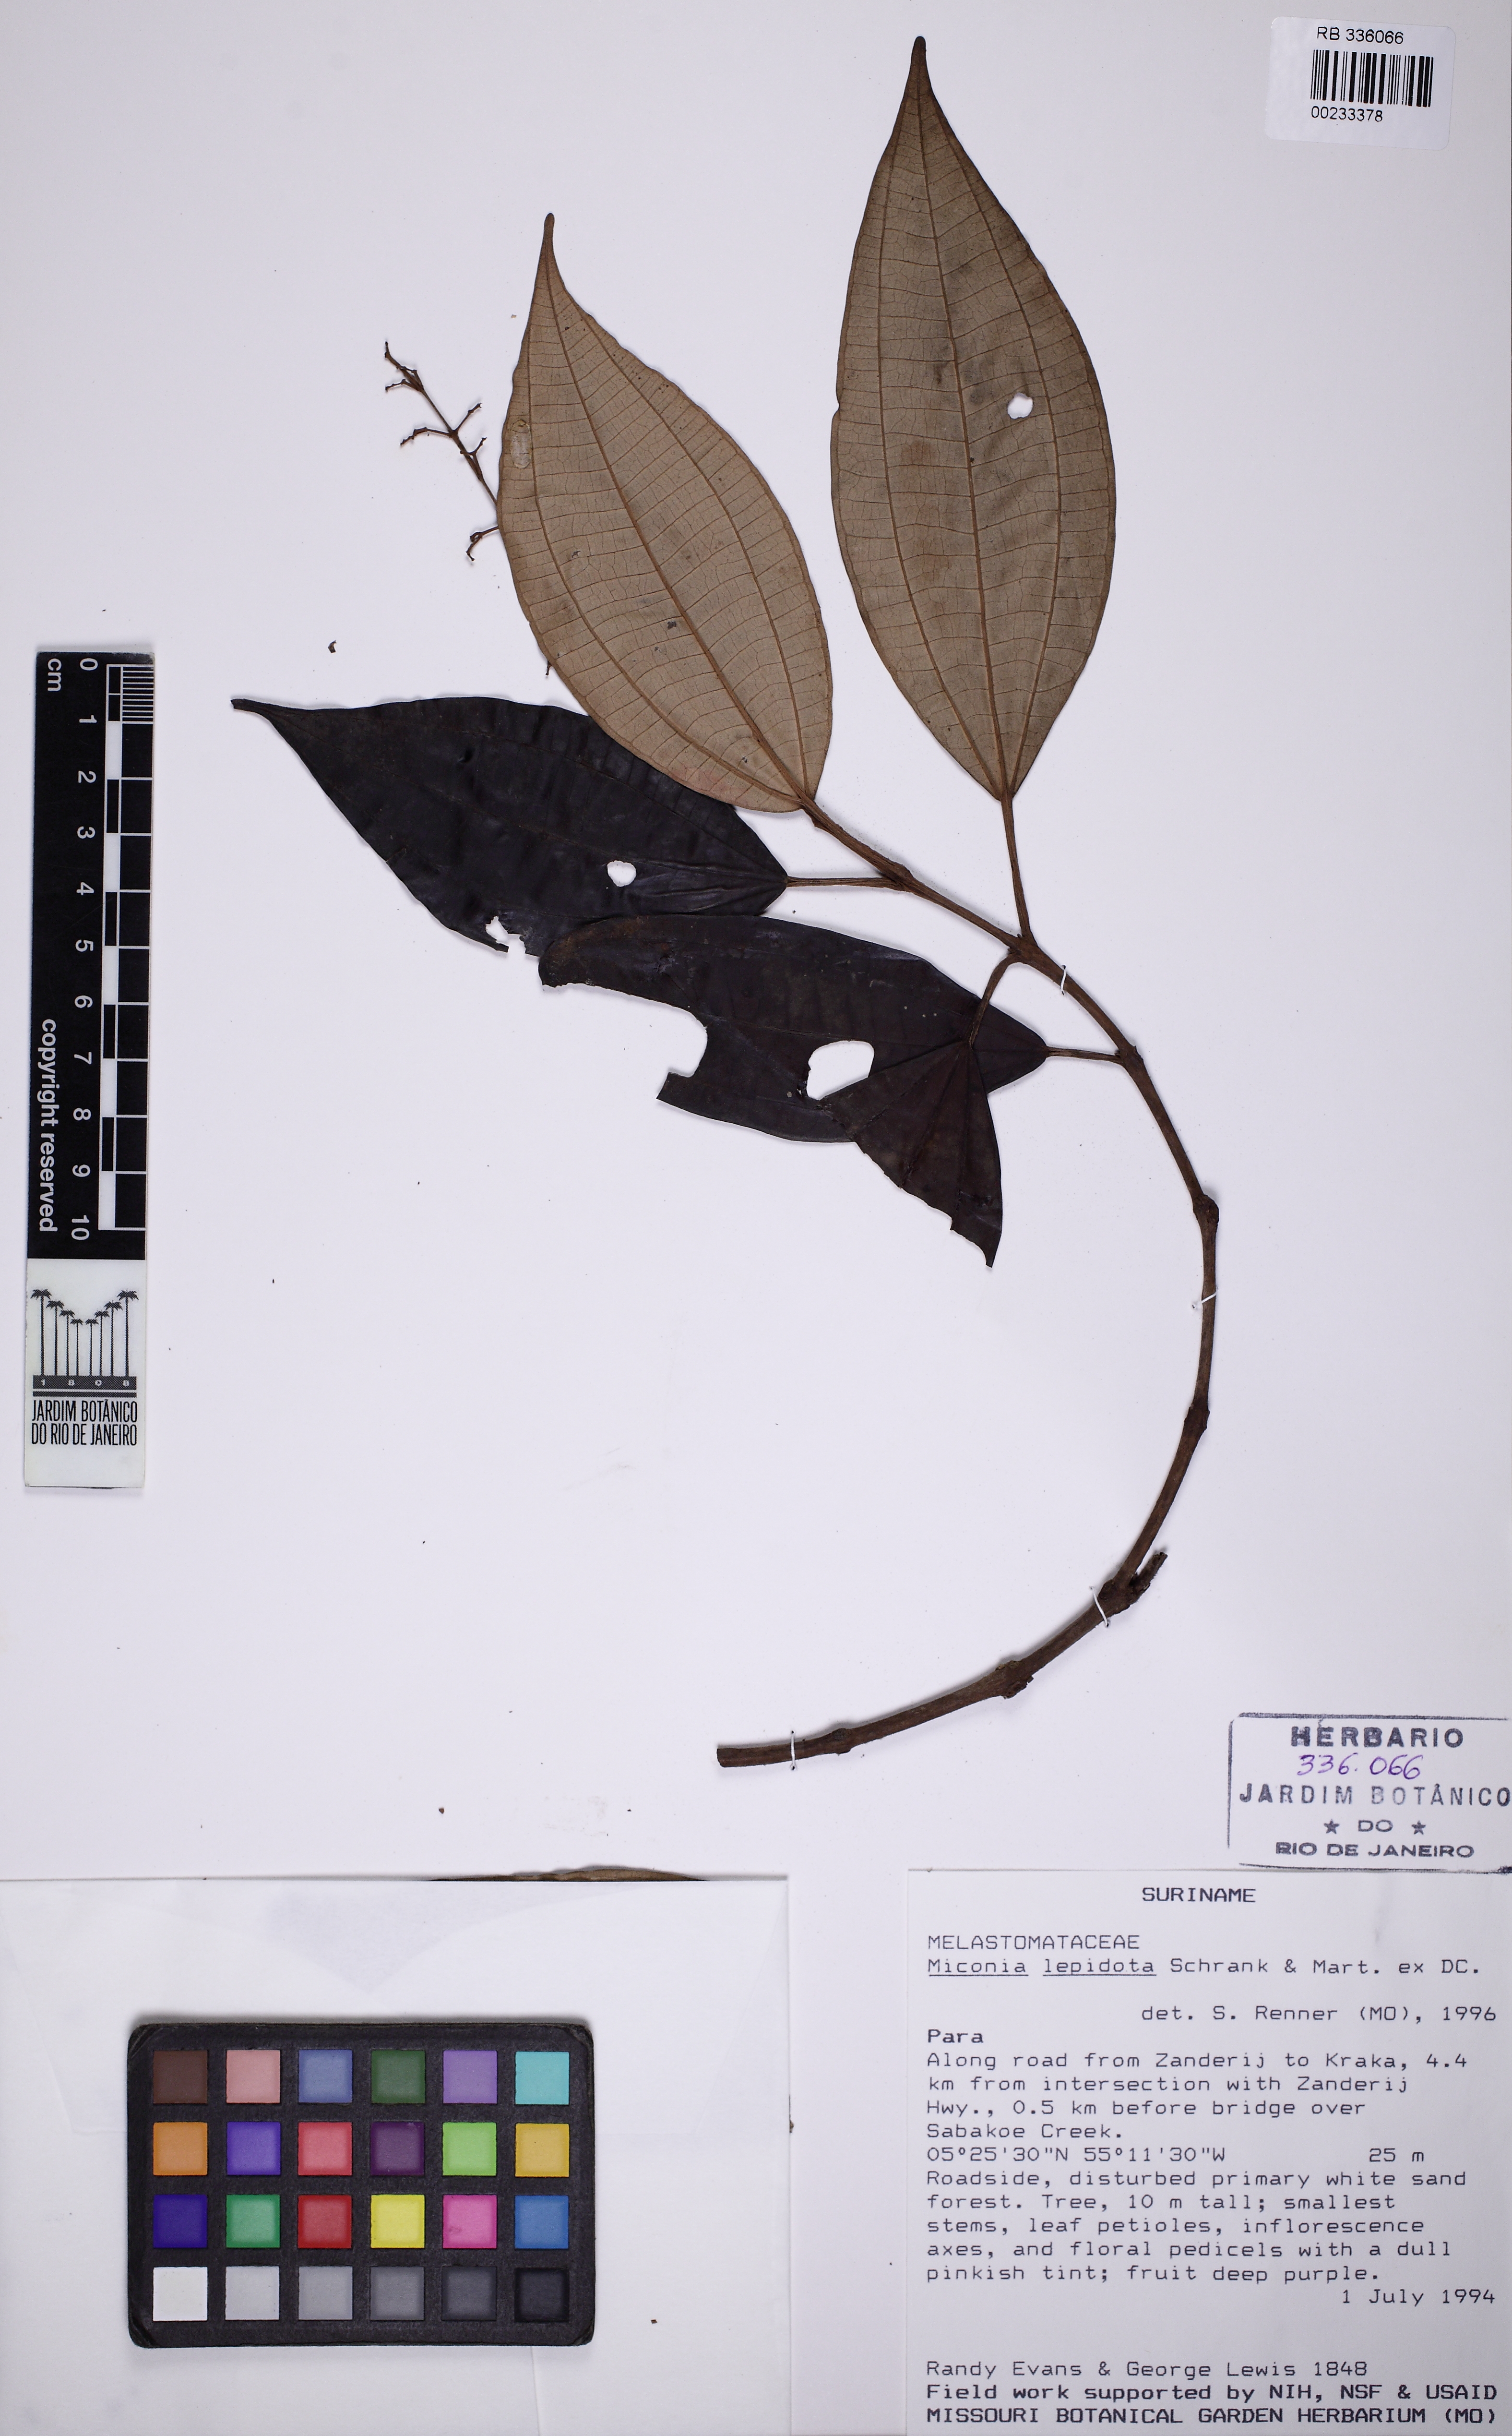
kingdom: Plantae
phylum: Tracheophyta
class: Magnoliopsida
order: Myrtales
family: Melastomataceae
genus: Miconia
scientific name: Miconia lepidota
